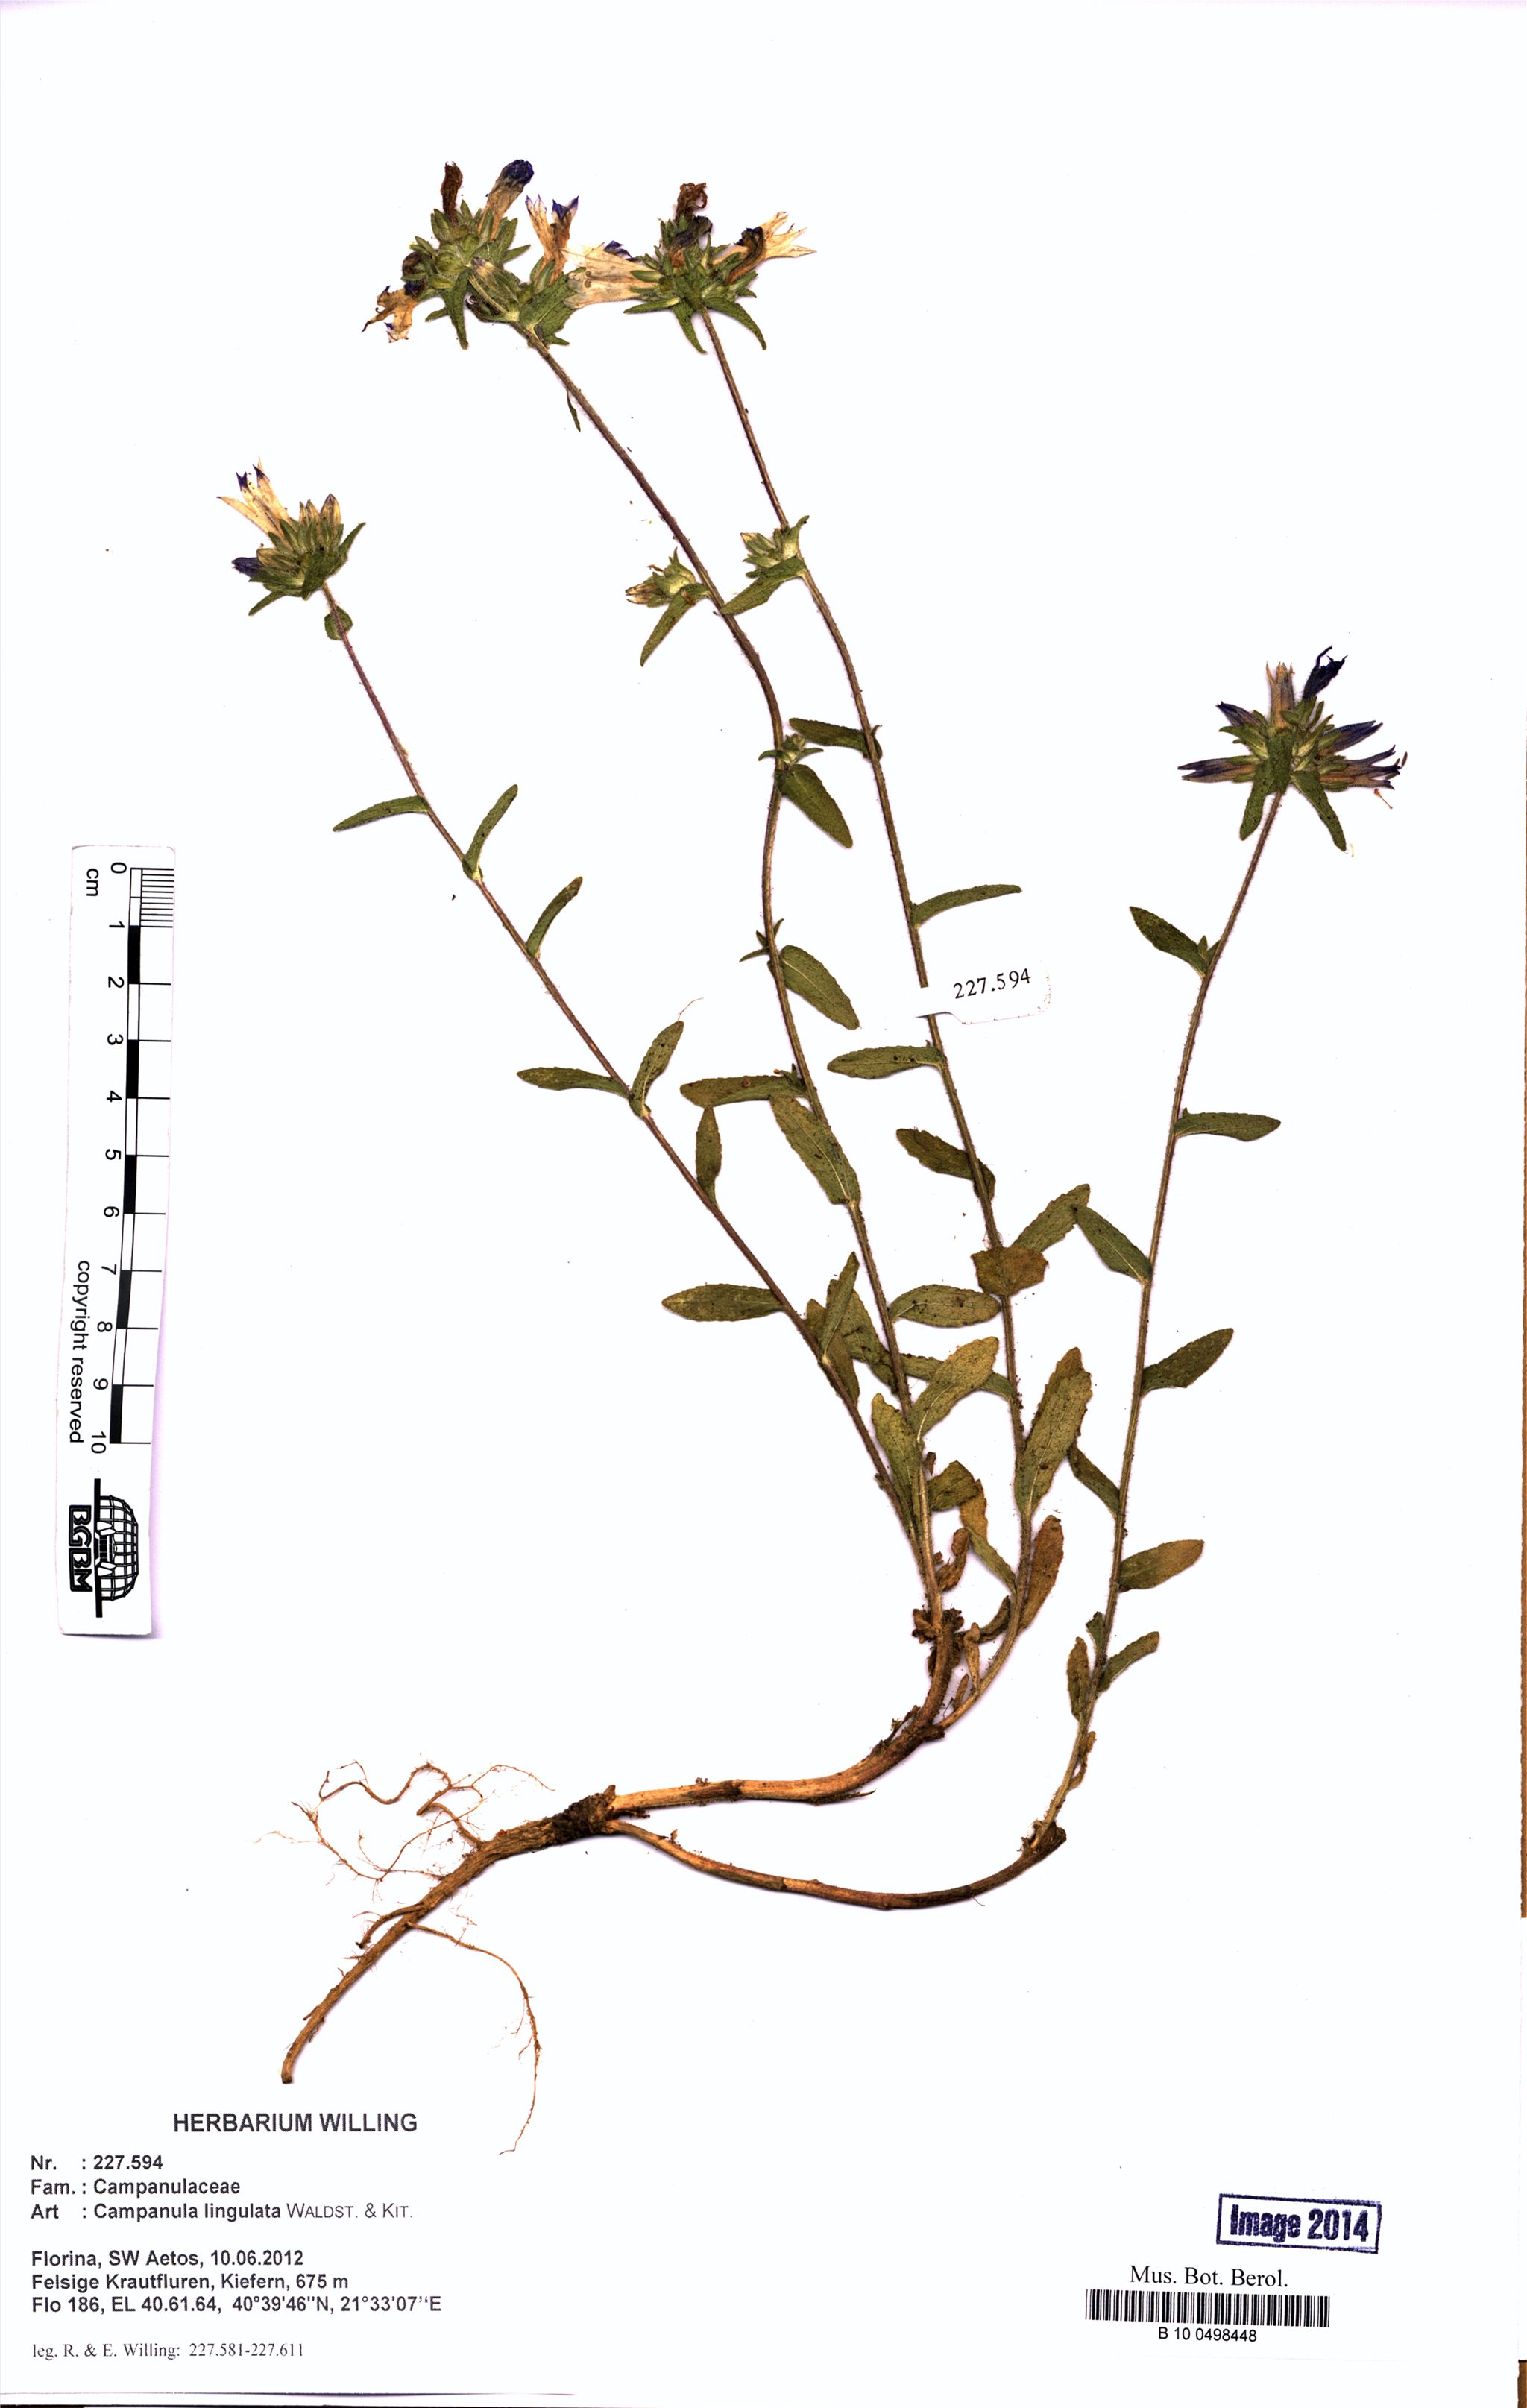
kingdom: Plantae
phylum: Tracheophyta
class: Magnoliopsida
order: Asterales
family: Campanulaceae
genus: Campanula
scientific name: Campanula lingulata
